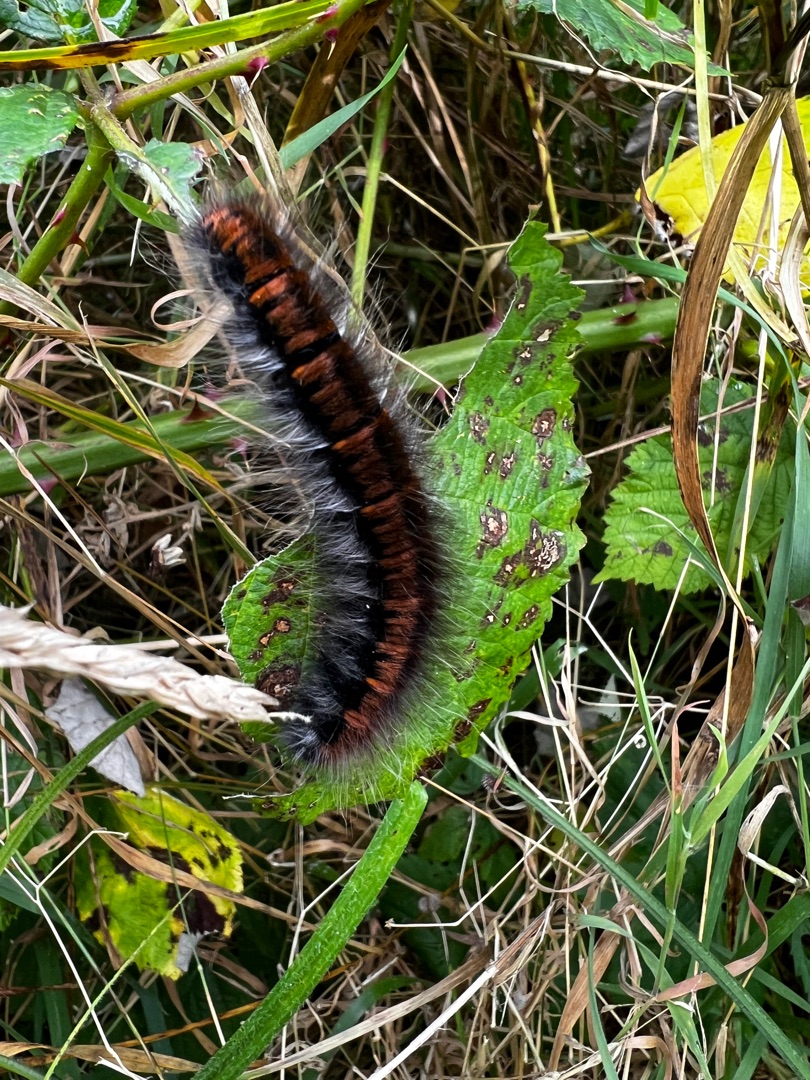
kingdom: Animalia
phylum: Arthropoda
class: Insecta
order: Lepidoptera
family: Lasiocampidae
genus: Macrothylacia
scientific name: Macrothylacia rubi
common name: Brombærspinder
